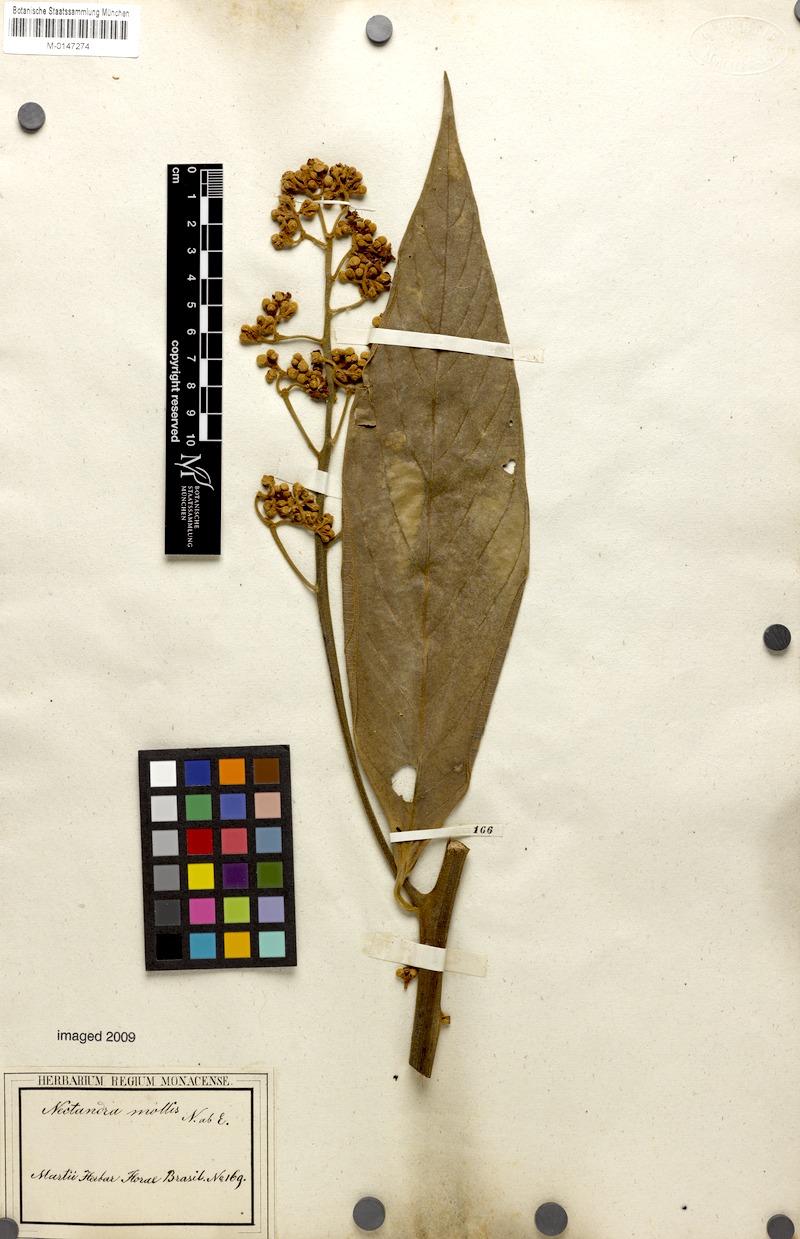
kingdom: Plantae
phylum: Tracheophyta
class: Magnoliopsida
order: Laurales
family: Lauraceae
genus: Nectandra
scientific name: Nectandra villosa
